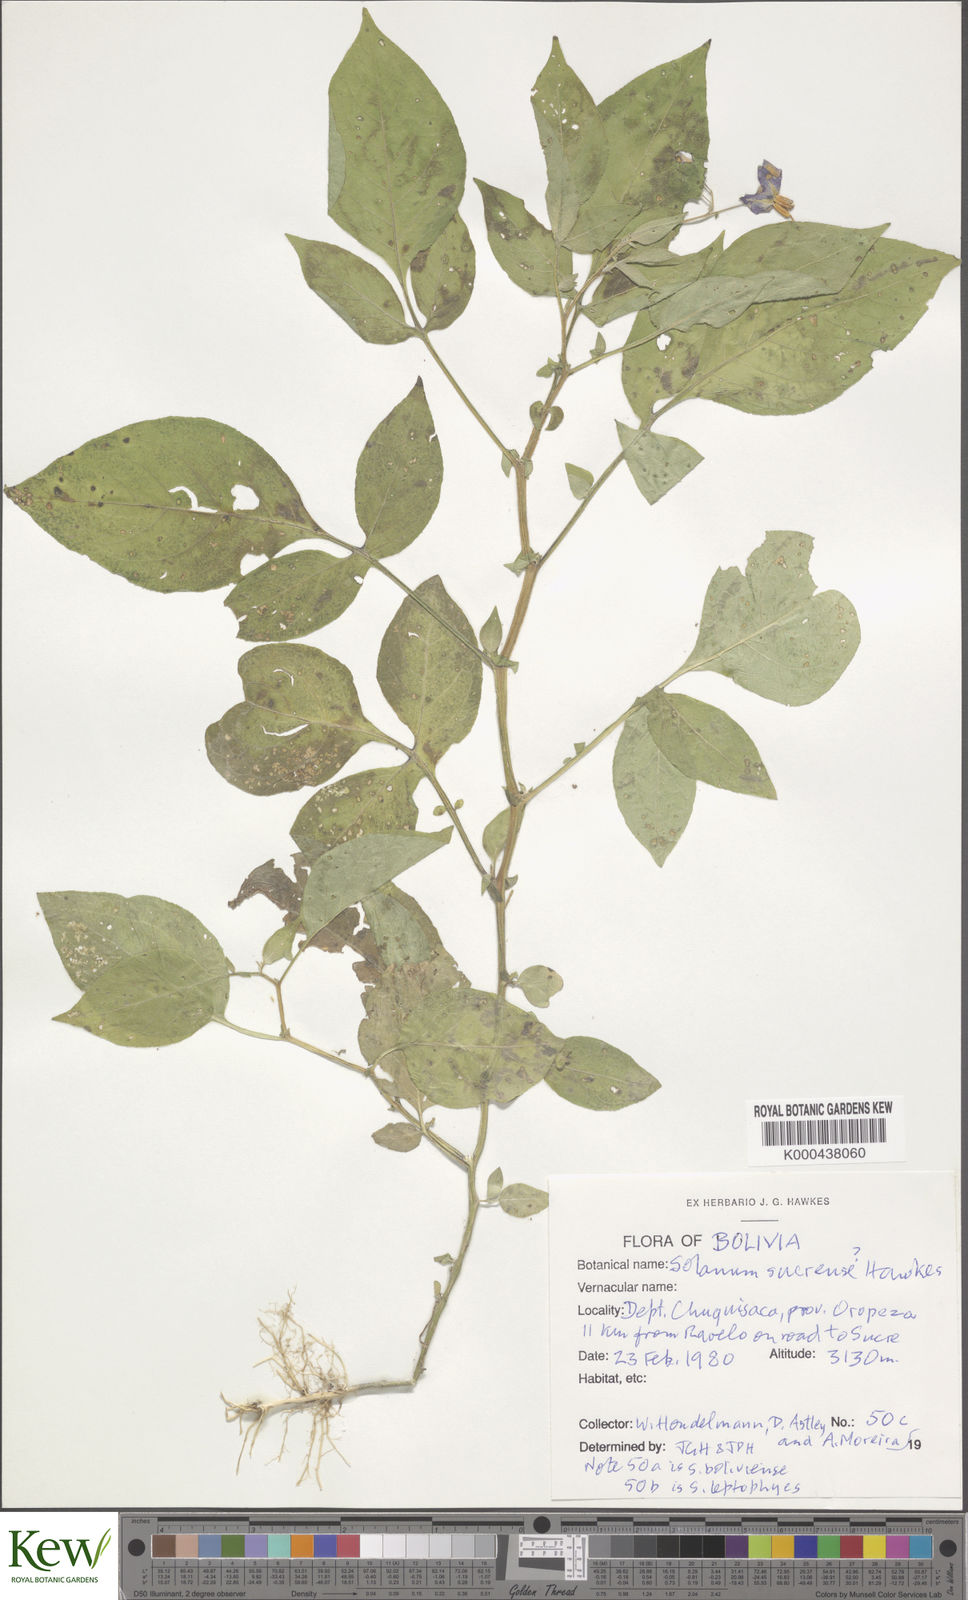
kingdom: Plantae
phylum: Tracheophyta
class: Magnoliopsida
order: Solanales
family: Solanaceae
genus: Solanum
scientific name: Solanum brevicaule
